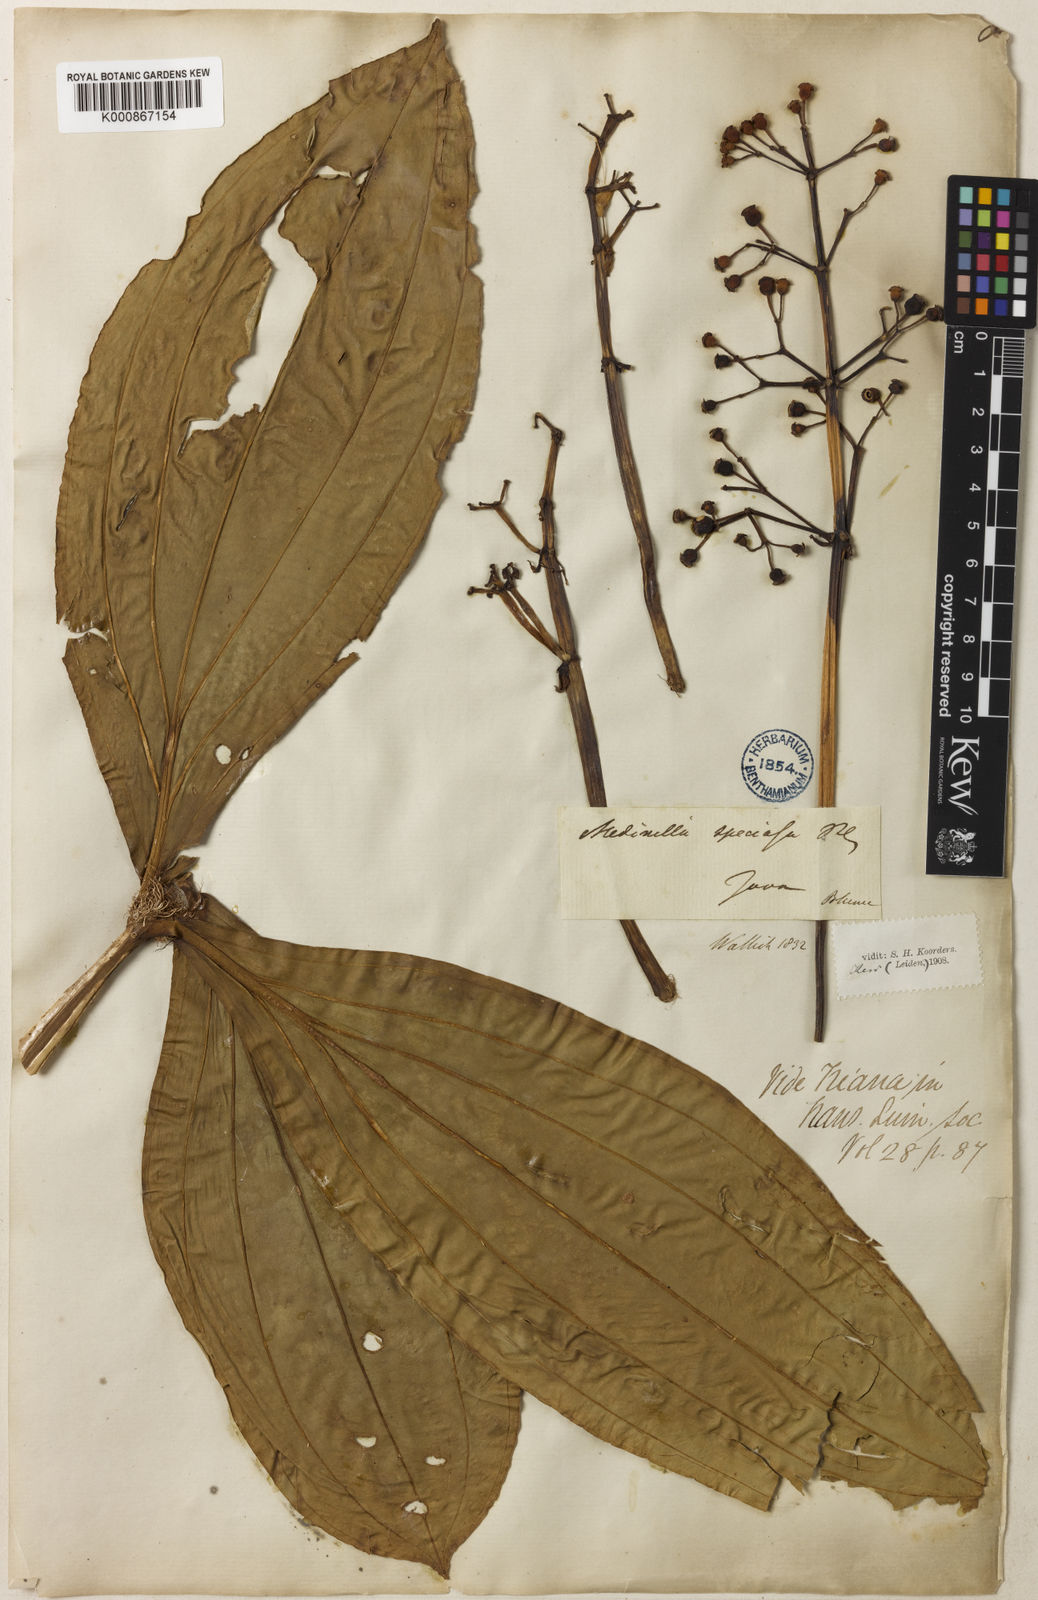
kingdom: Plantae
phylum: Tracheophyta
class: Magnoliopsida
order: Myrtales
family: Melastomataceae
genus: Medinilla
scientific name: Medinilla speciosa
